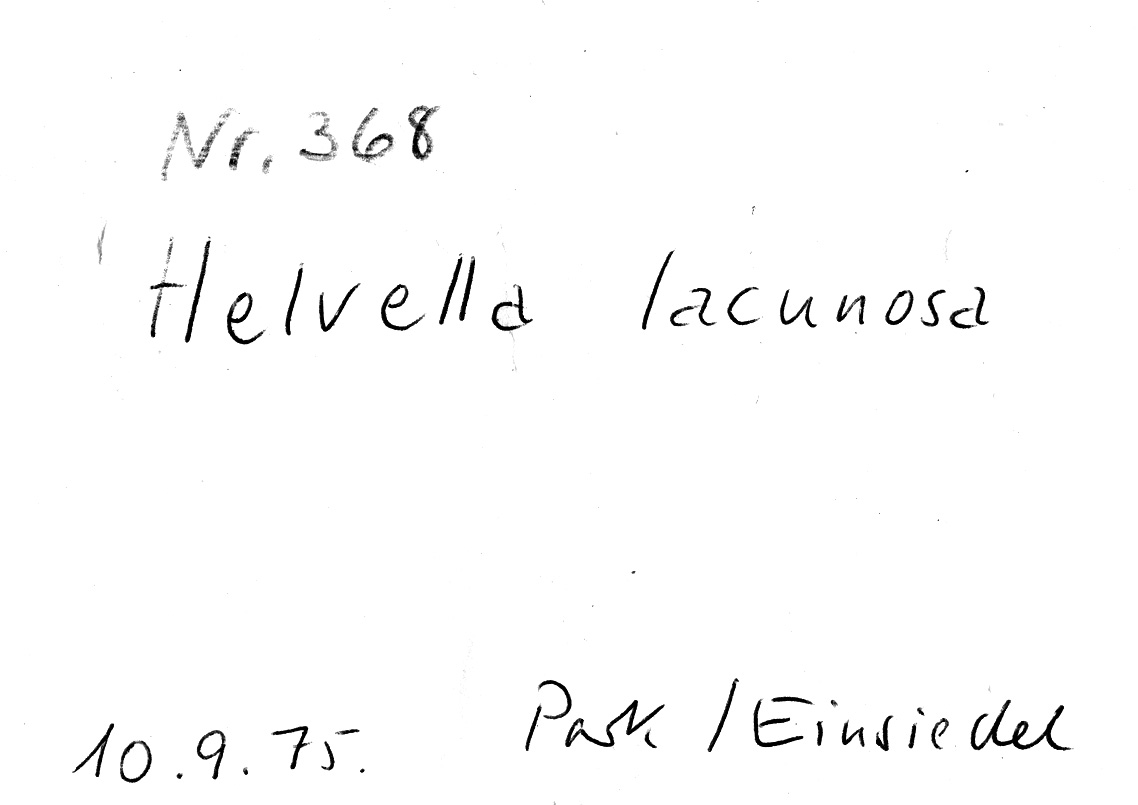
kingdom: Fungi
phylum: Ascomycota
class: Pezizomycetes
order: Pezizales
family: Helvellaceae
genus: Helvella
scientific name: Helvella lacunosa
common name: Elfin saddle
